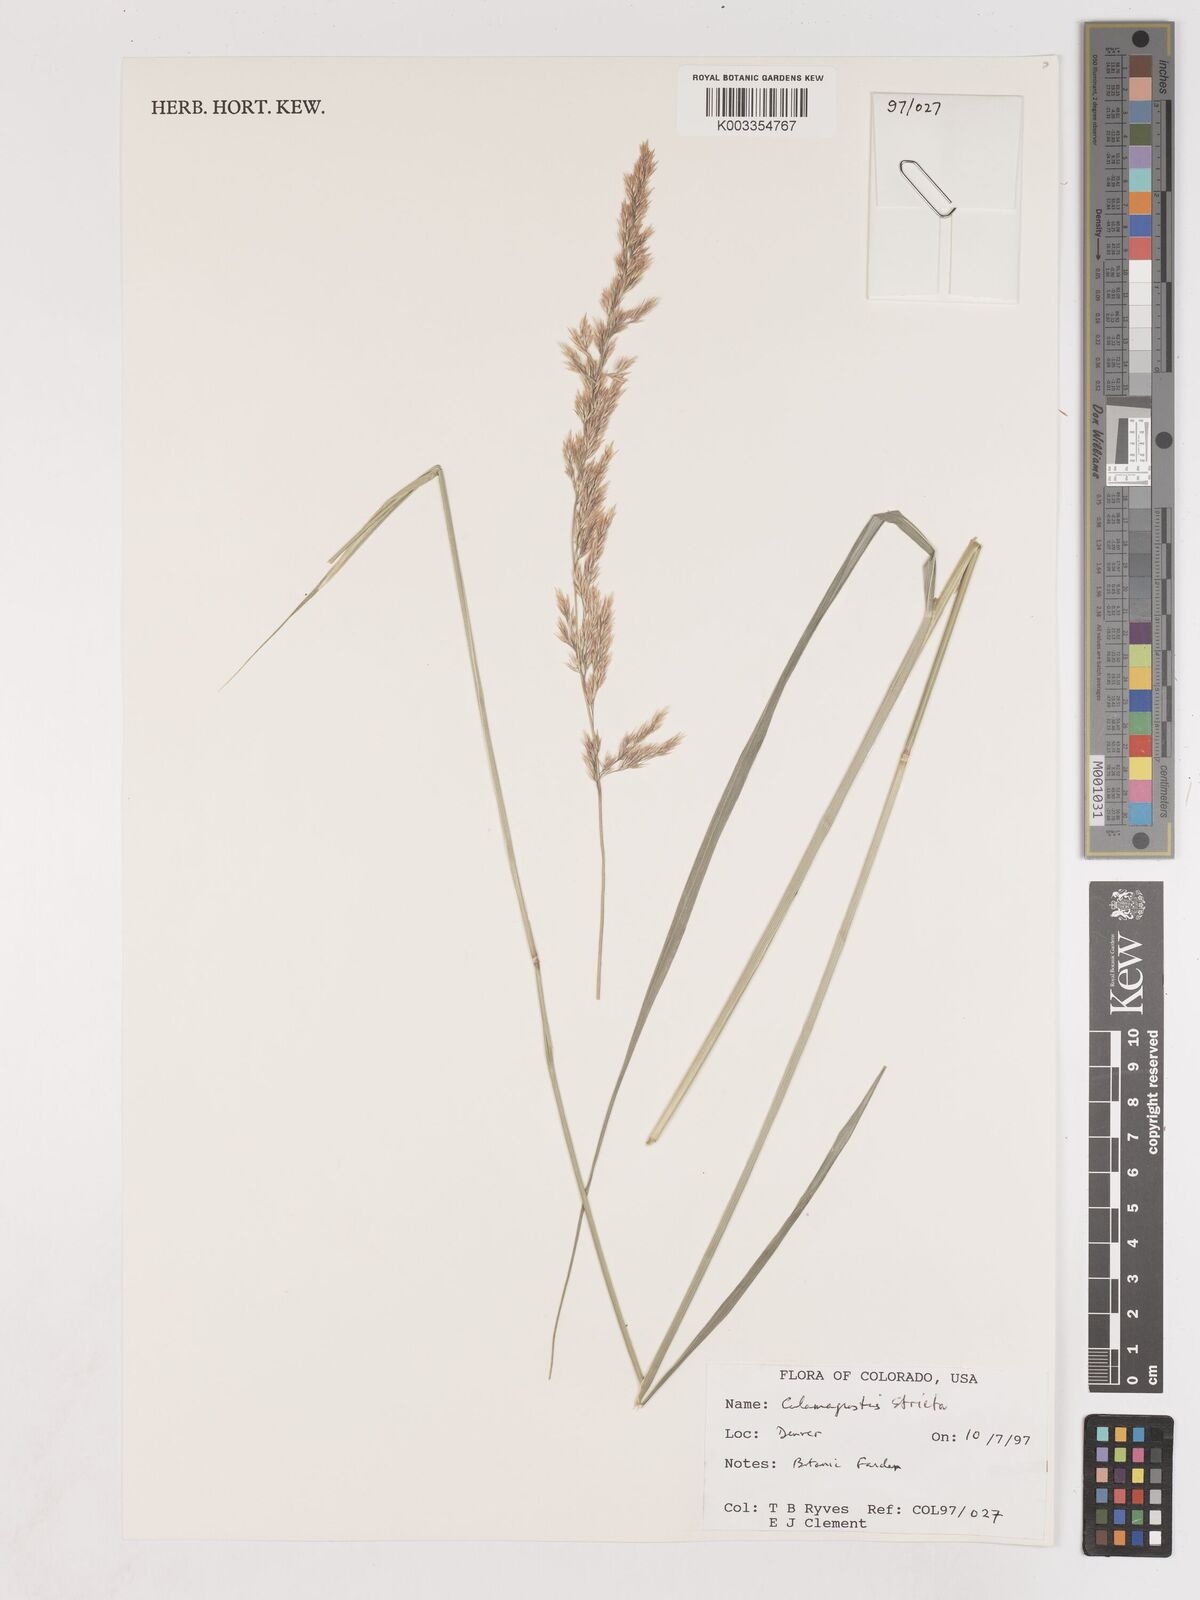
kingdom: Plantae
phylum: Tracheophyta
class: Liliopsida
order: Poales
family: Poaceae
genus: Cinnagrostis
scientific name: Cinnagrostis recta
